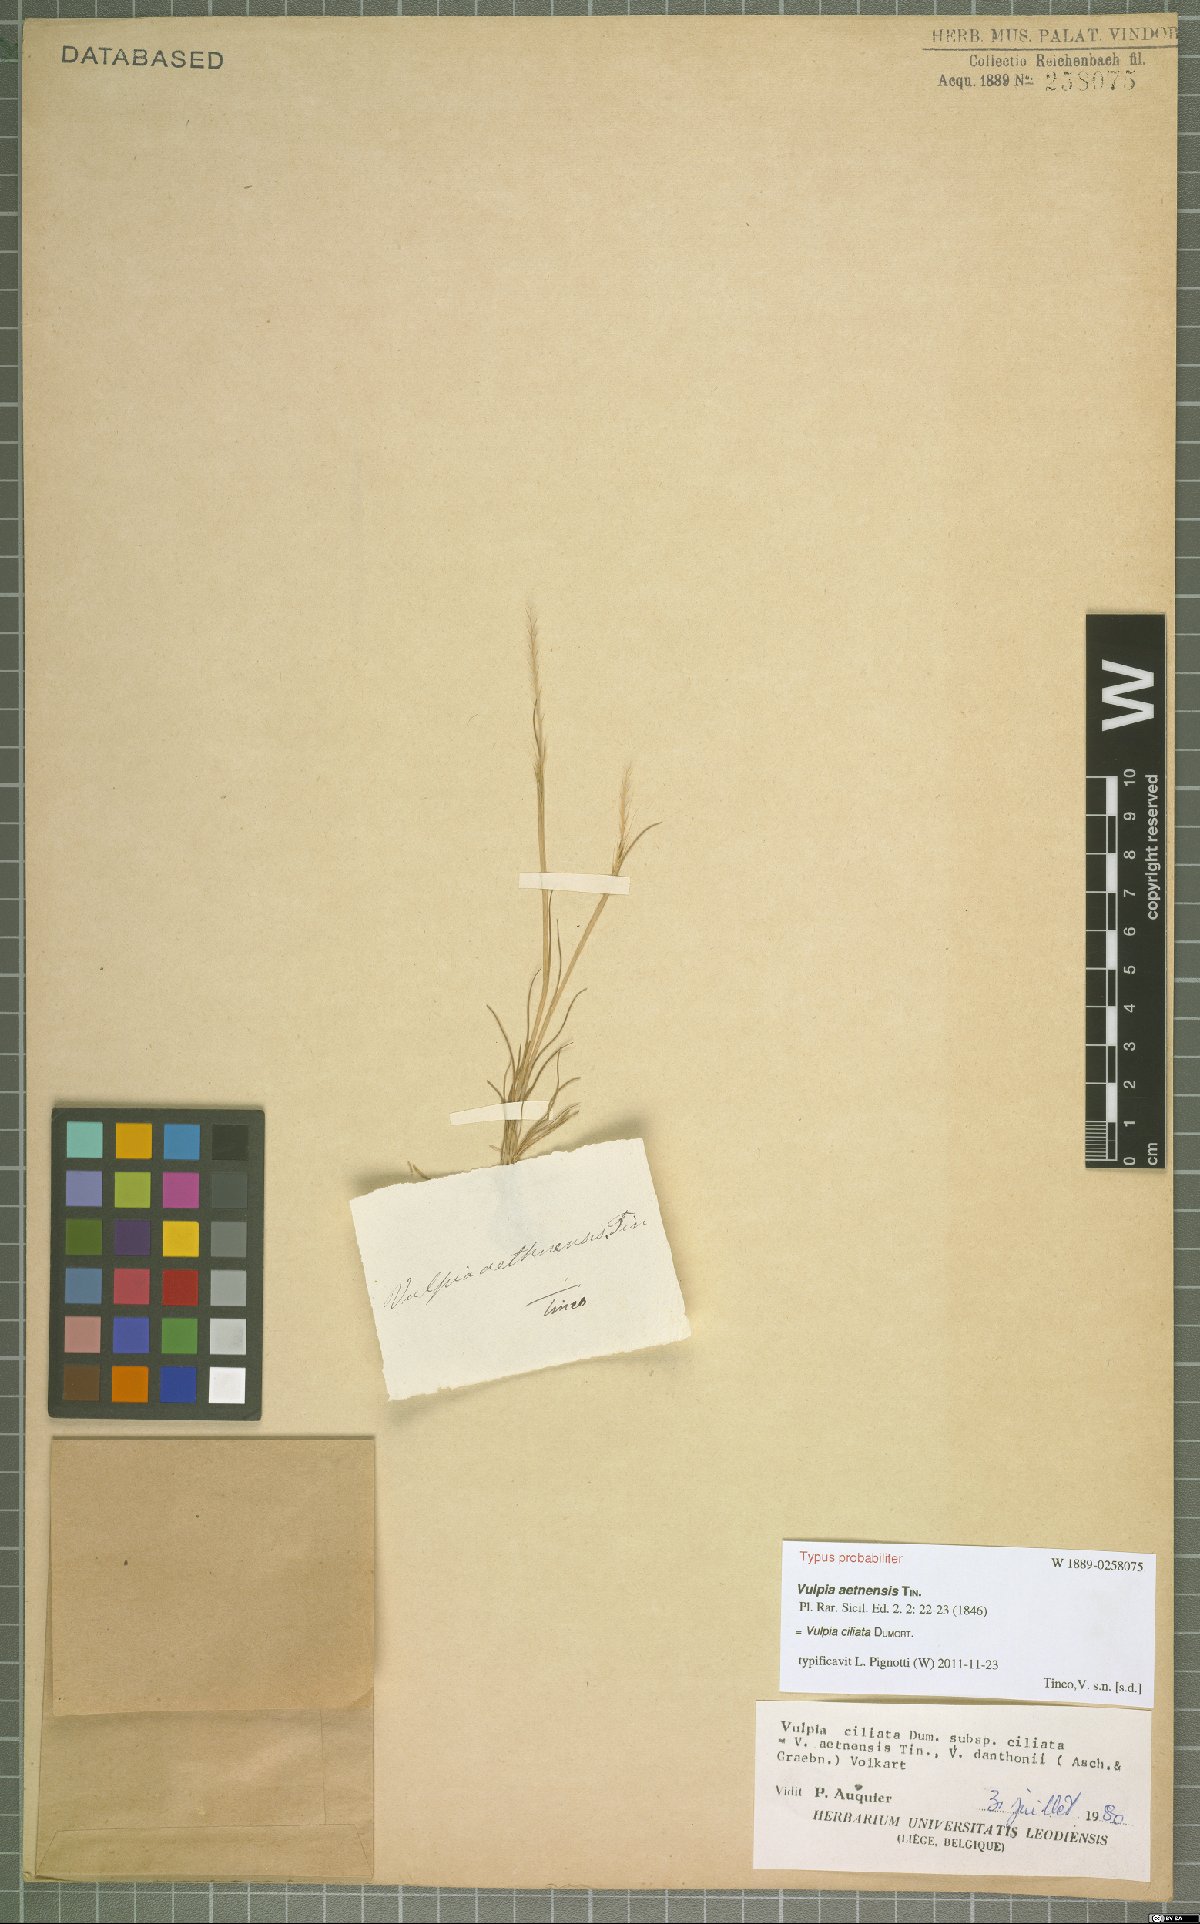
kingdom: Plantae
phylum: Tracheophyta
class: Liliopsida
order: Poales
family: Poaceae
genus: Festuca
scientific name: Festuca ambigua
